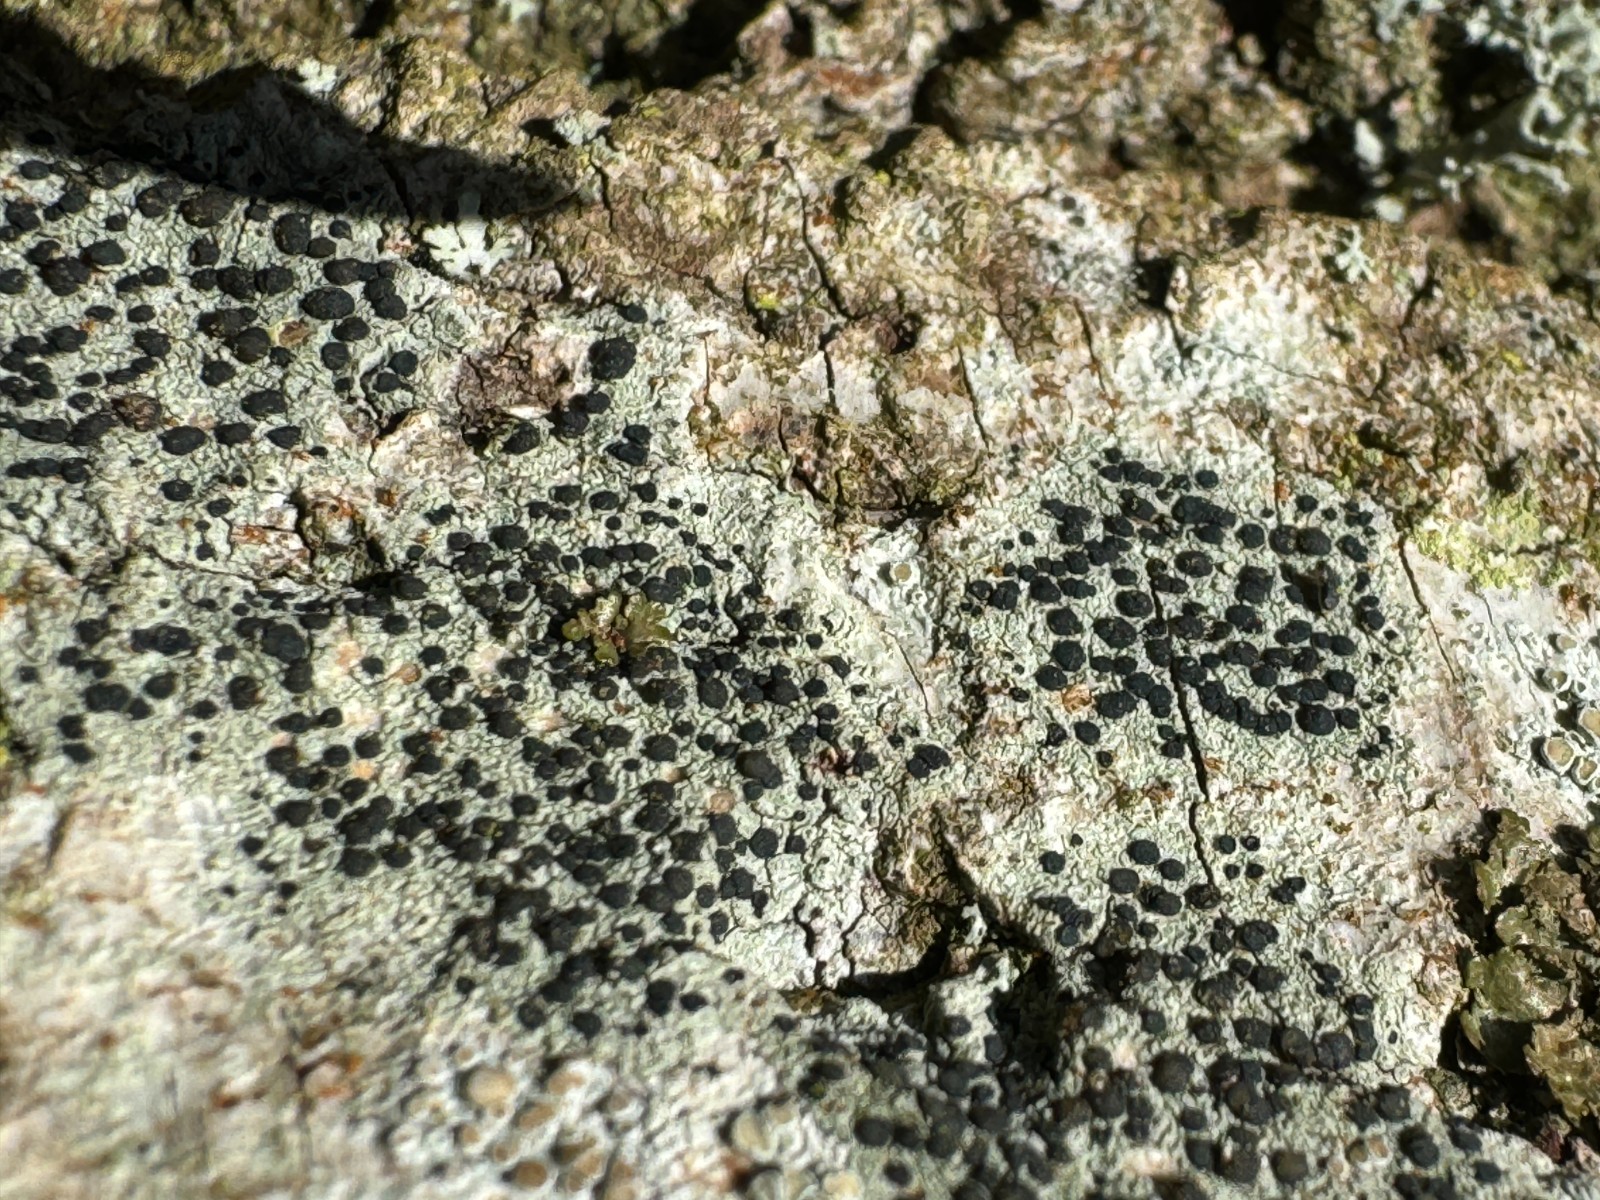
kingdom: Fungi
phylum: Ascomycota
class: Lecanoromycetes
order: Lecanorales
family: Lecanoraceae
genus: Lecidella
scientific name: Lecidella elaeochroma
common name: grågrøn skivelav
